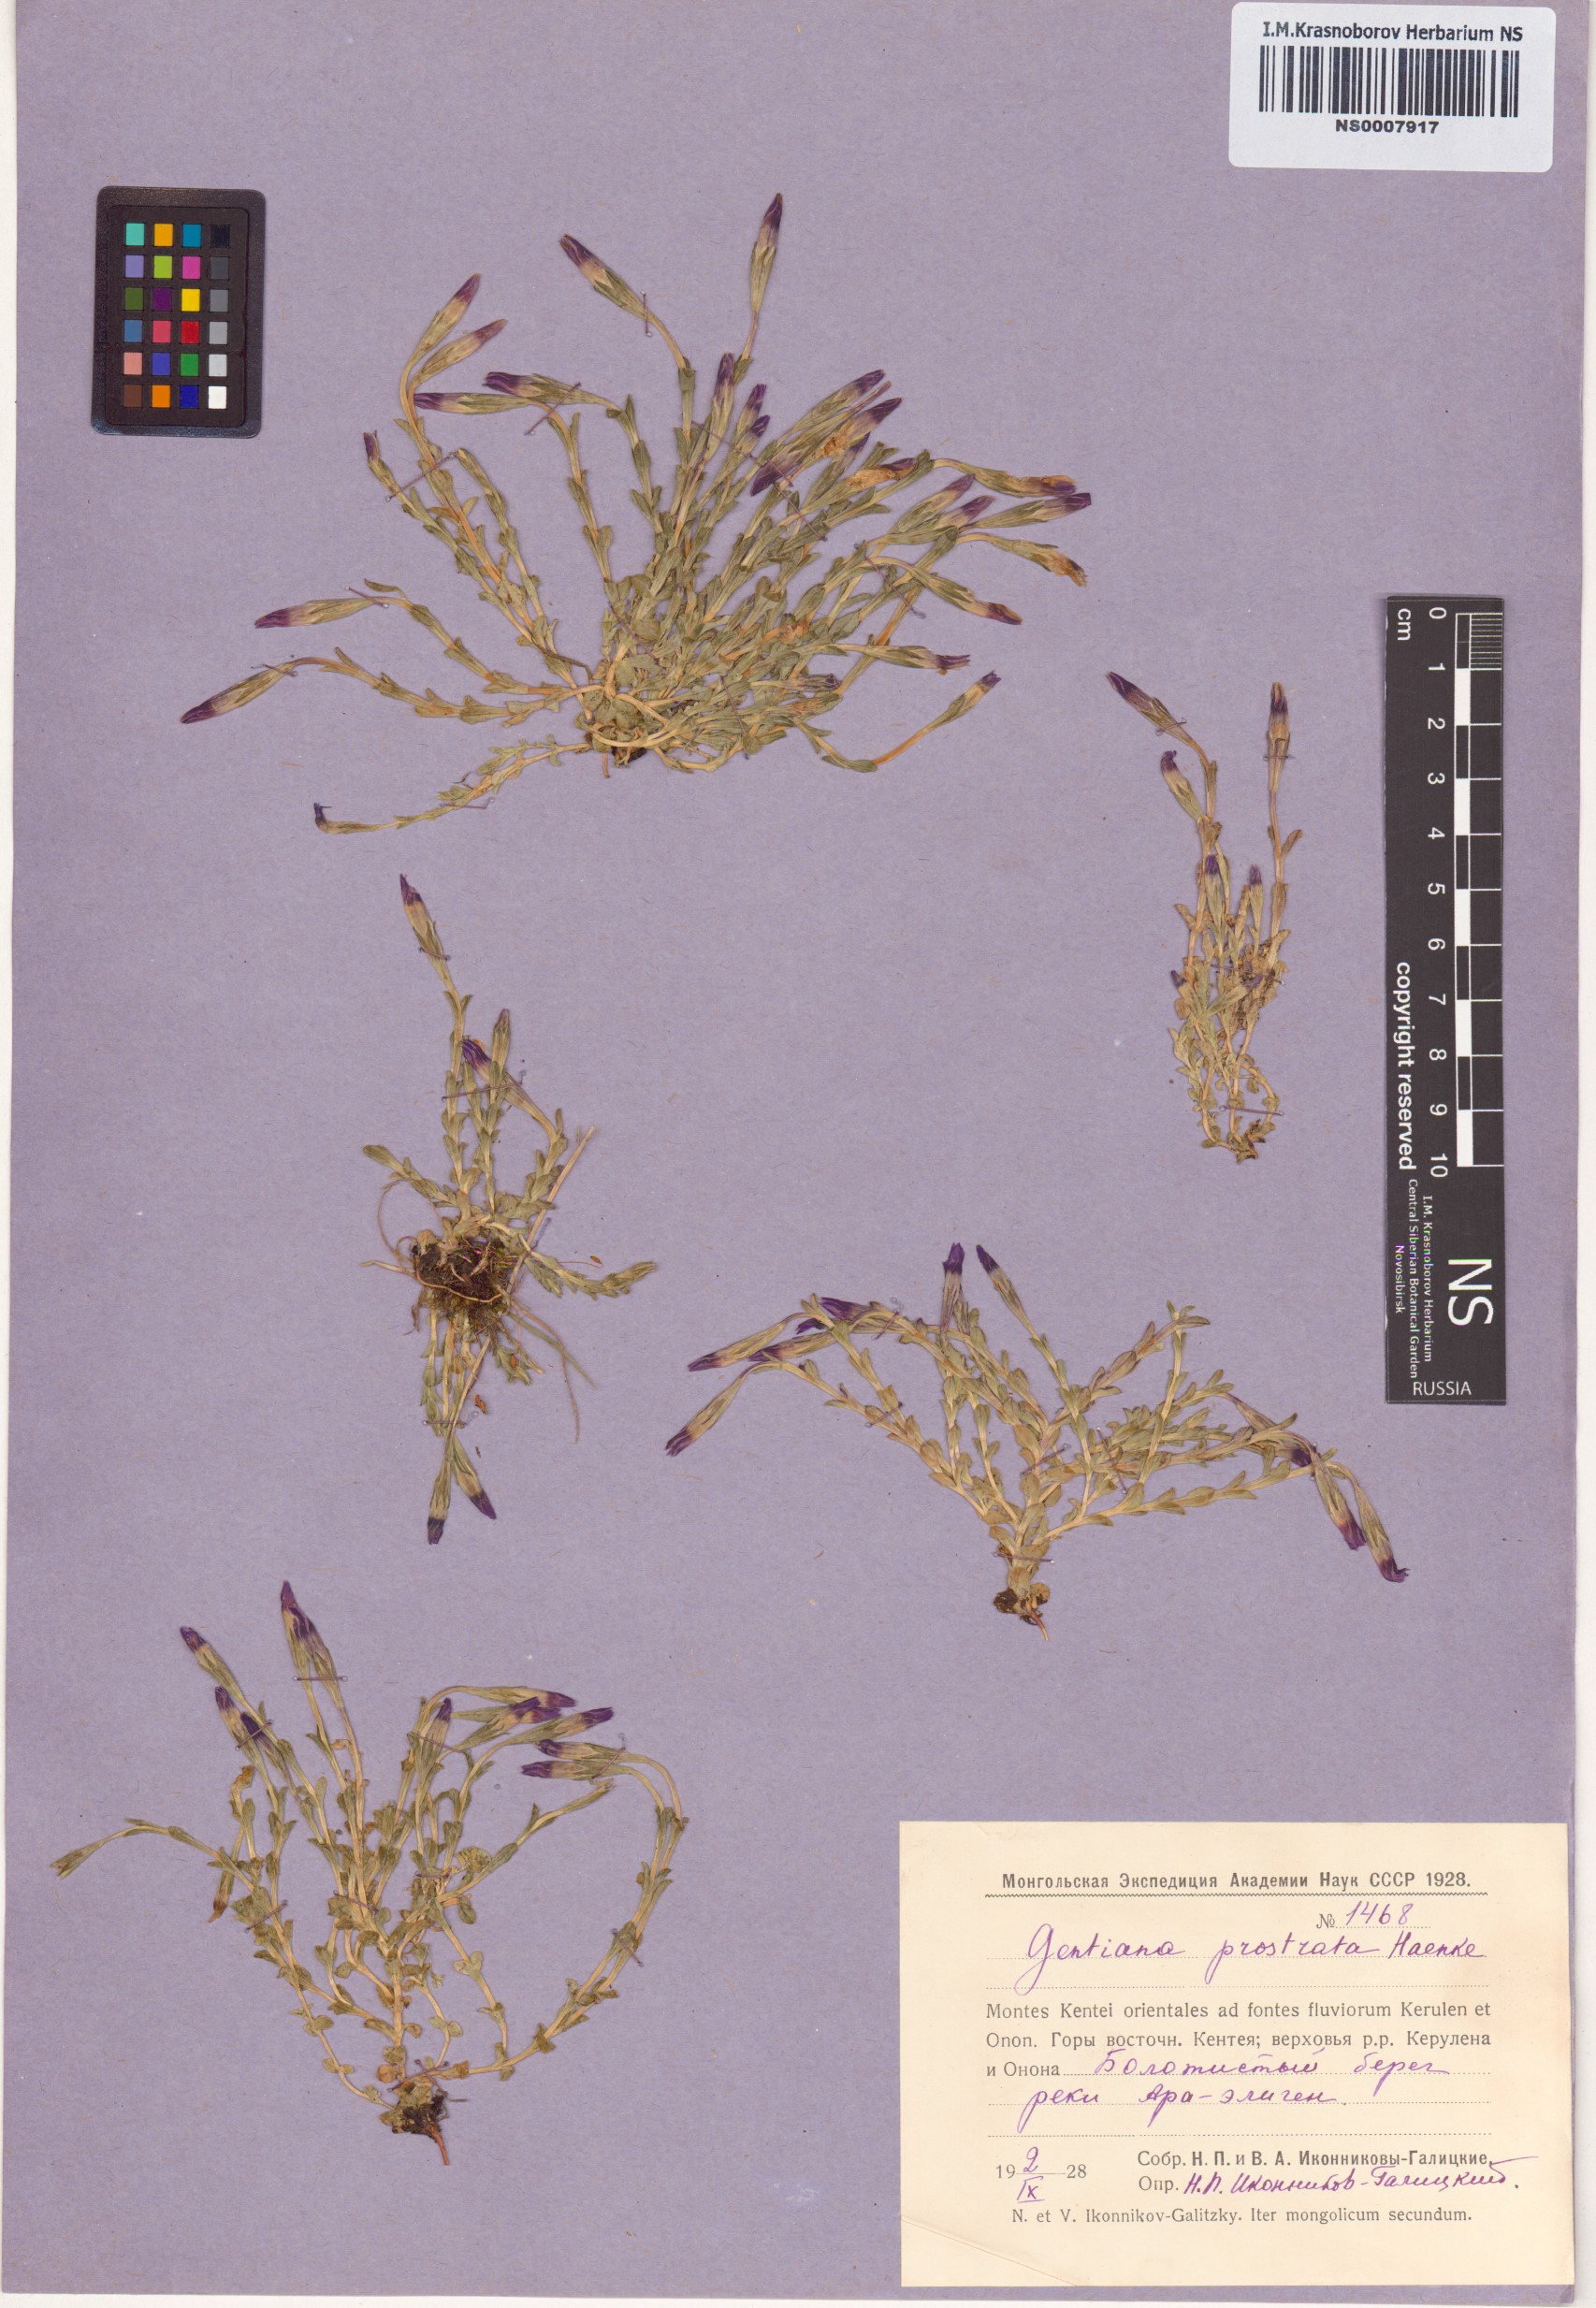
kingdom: Plantae
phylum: Tracheophyta
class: Magnoliopsida
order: Gentianales
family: Gentianaceae
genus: Gentiana
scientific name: Gentiana prostrata
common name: Moss gentian
